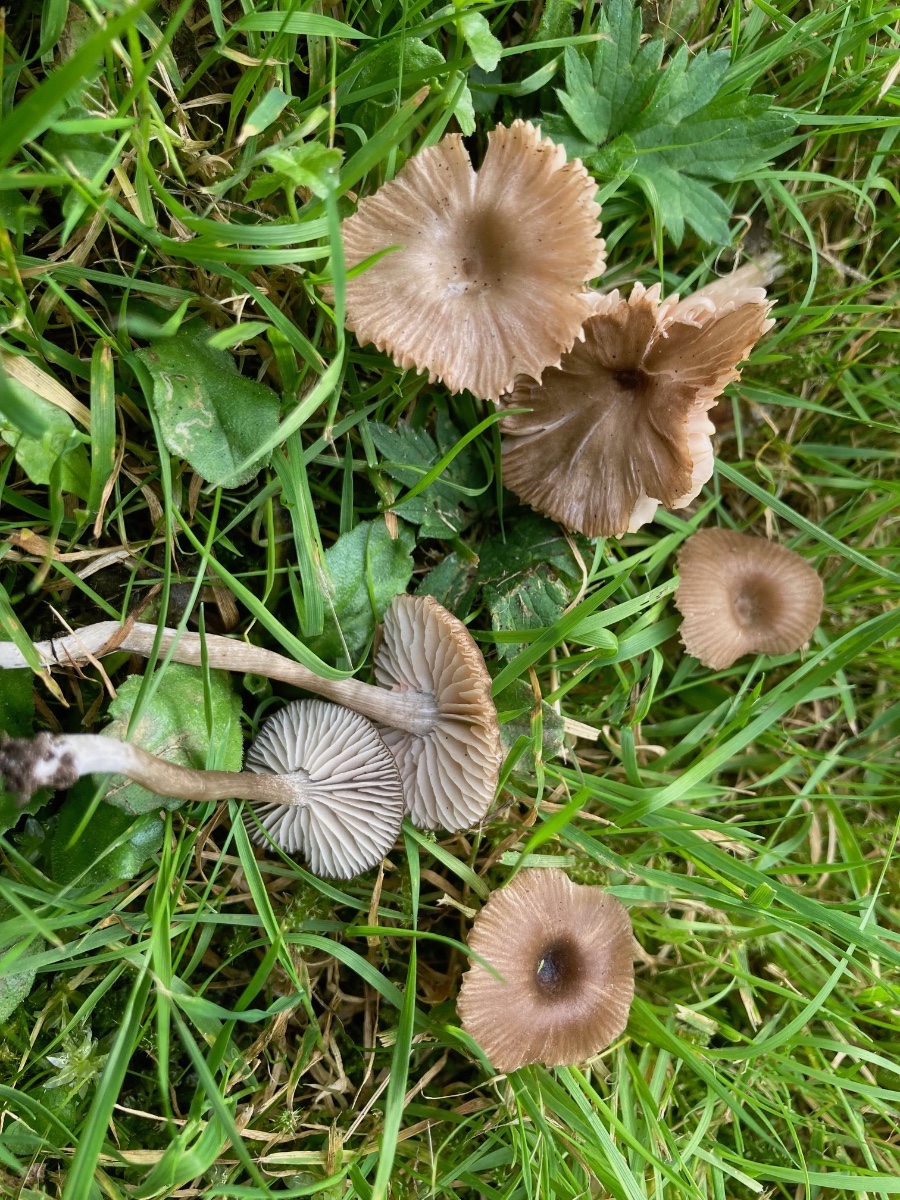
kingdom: Fungi
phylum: Basidiomycota
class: Agaricomycetes
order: Agaricales
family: Entolomataceae
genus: Entoloma
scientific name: Entoloma
